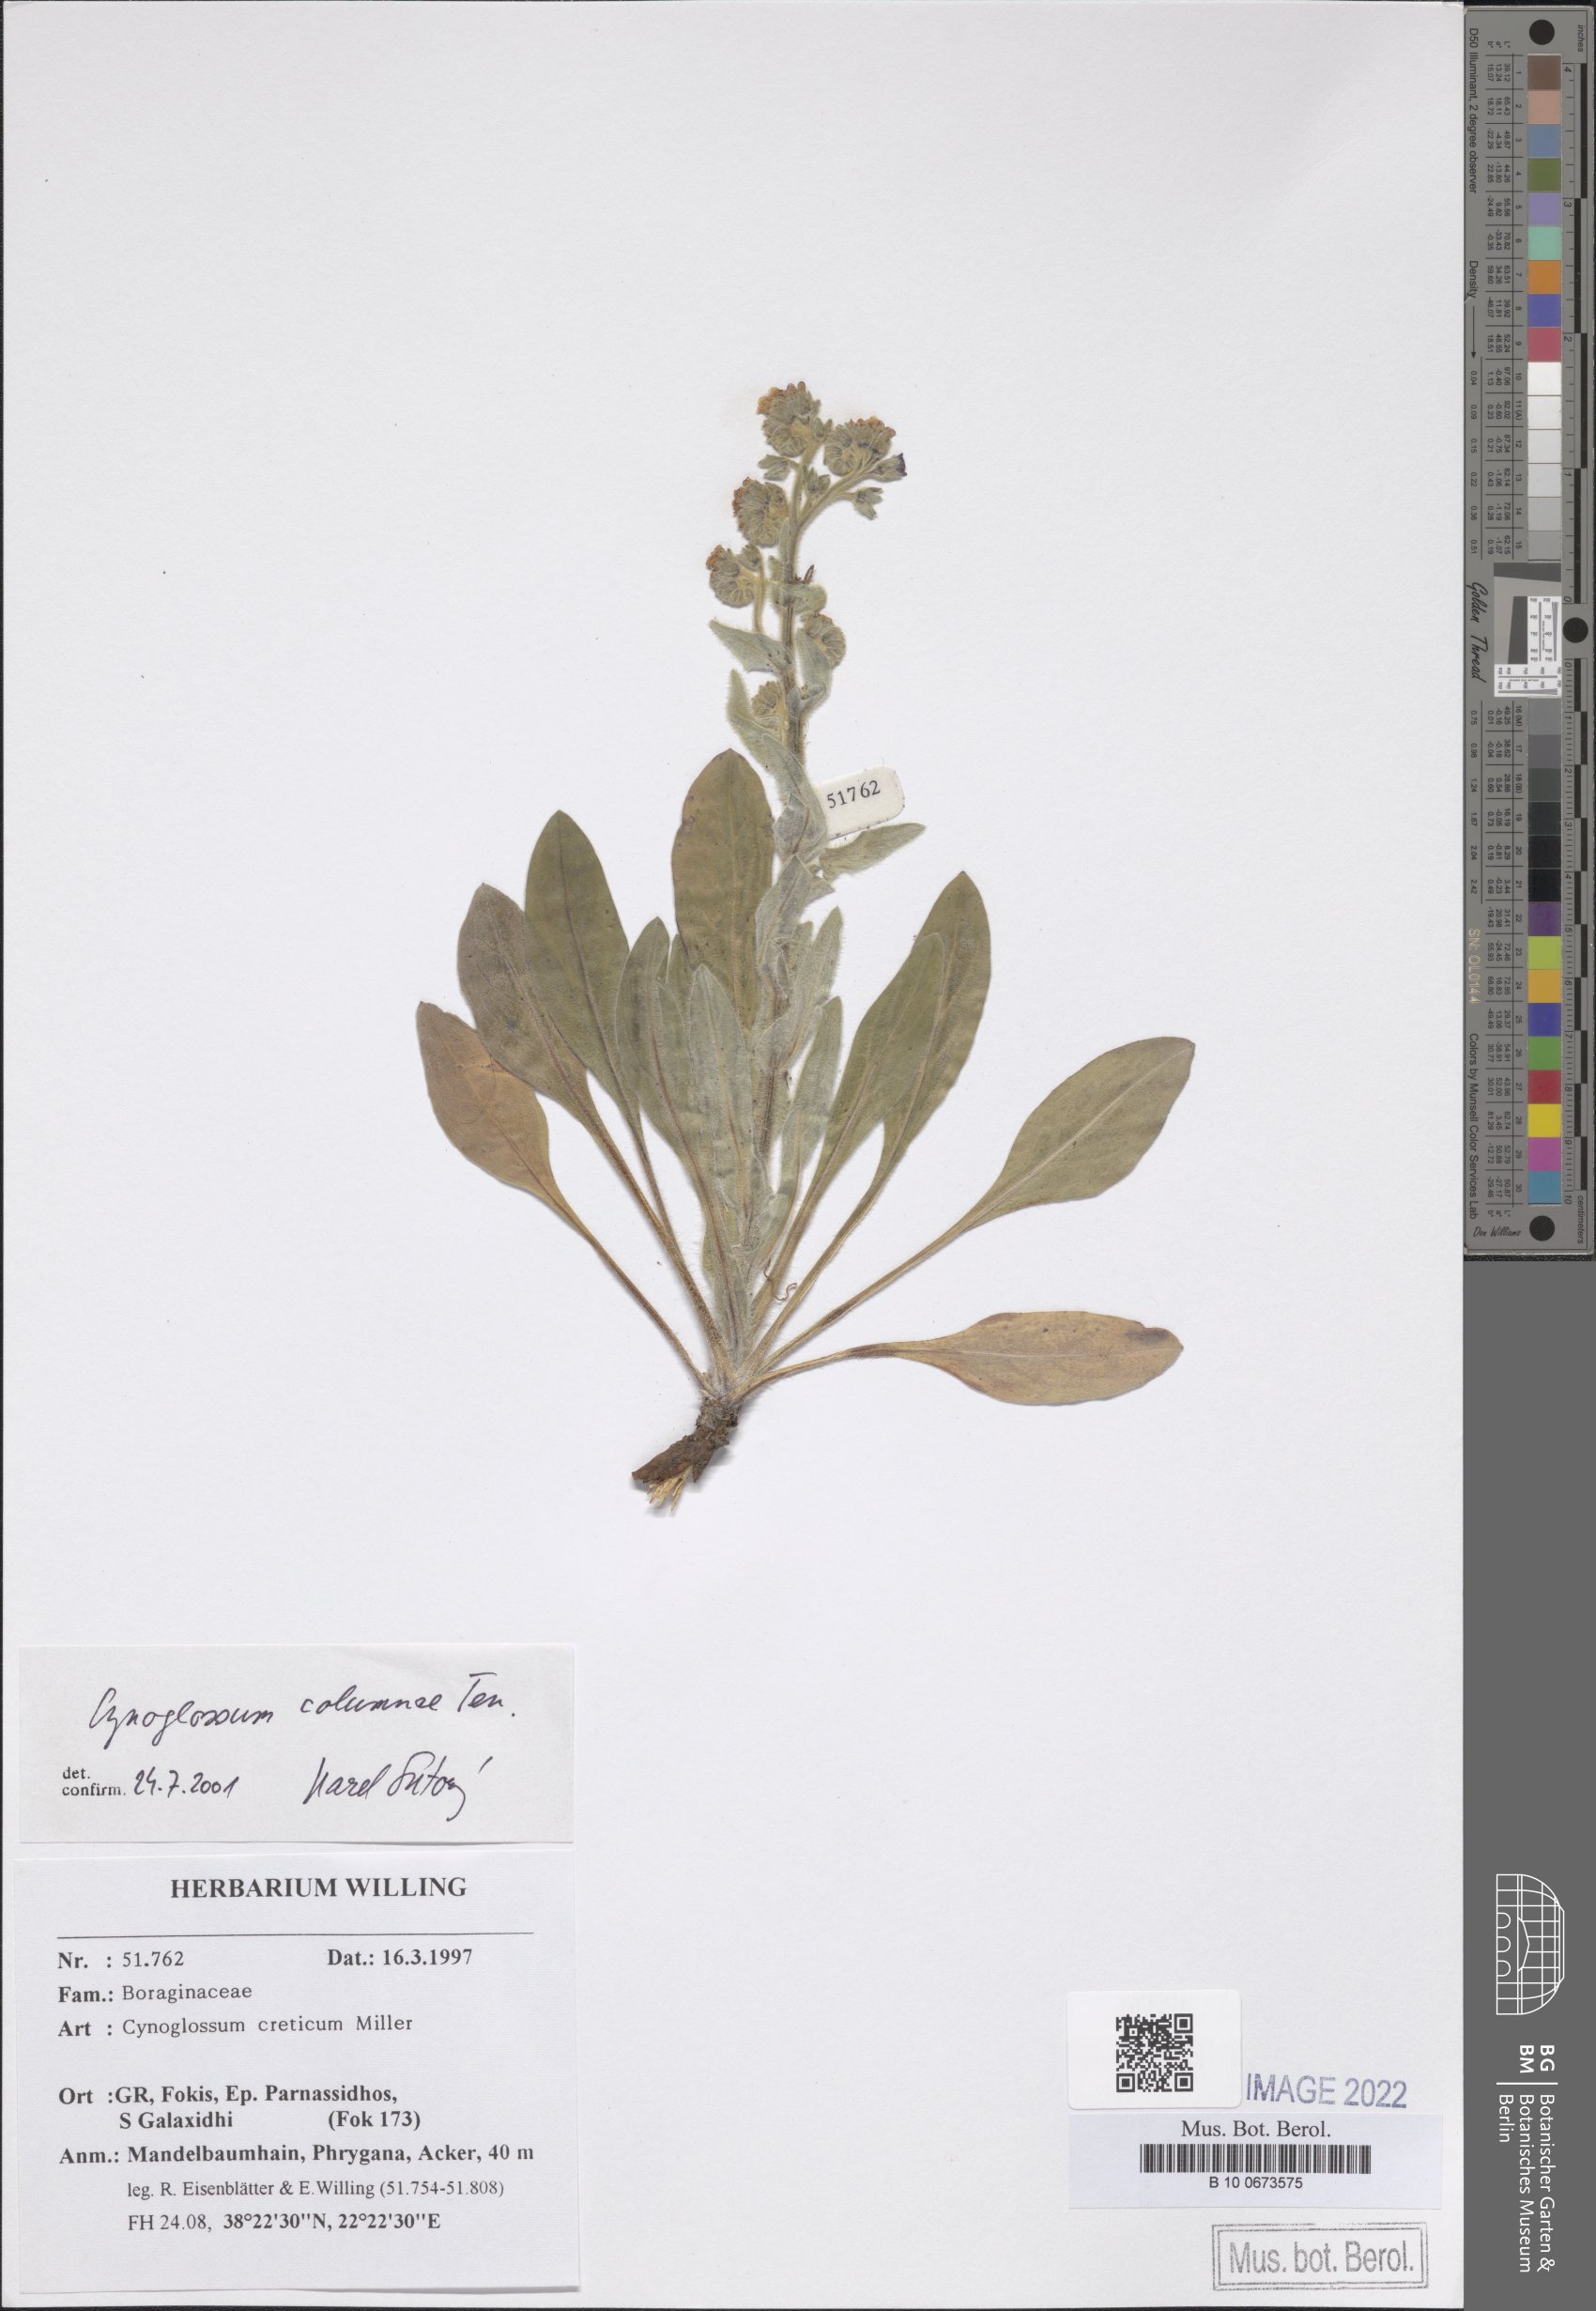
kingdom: Plantae
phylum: Tracheophyta
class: Magnoliopsida
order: Boraginales
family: Boraginaceae
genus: Rindera
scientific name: Rindera columnae
